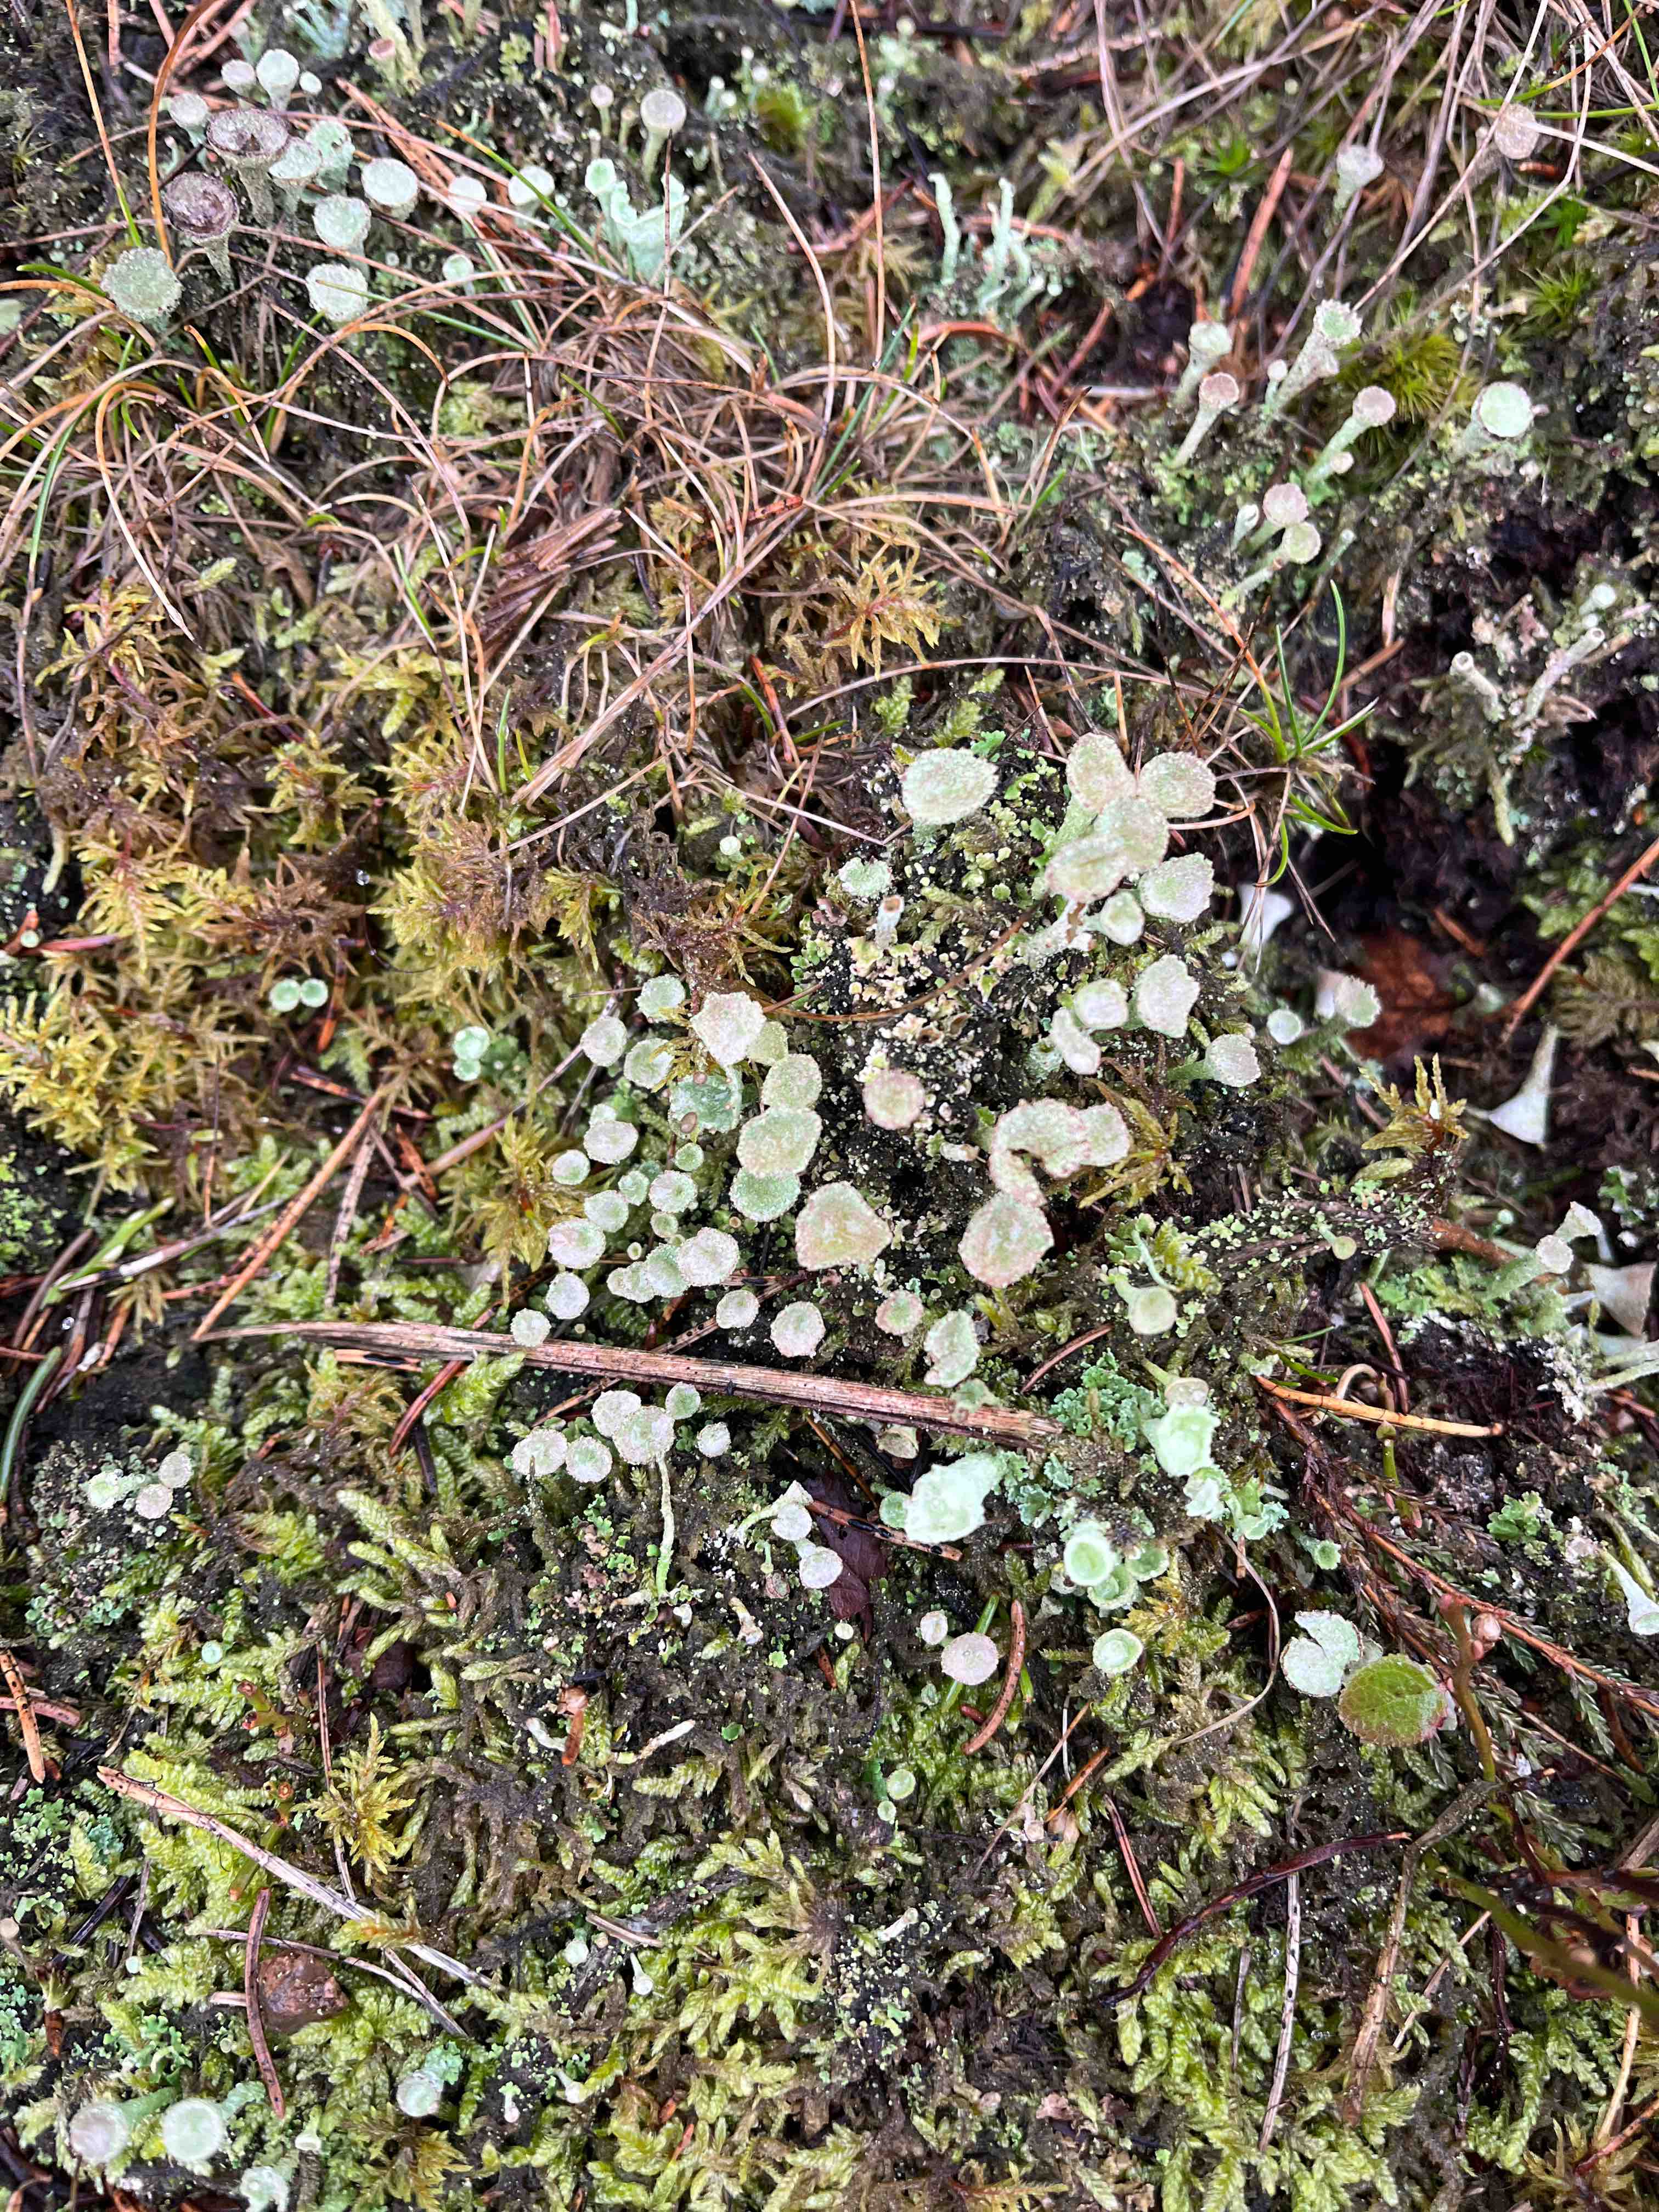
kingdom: Fungi
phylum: Ascomycota
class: Lecanoromycetes
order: Lecanorales
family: Cladoniaceae
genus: Cladonia
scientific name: Cladonia
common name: brungrøn bægerlav
